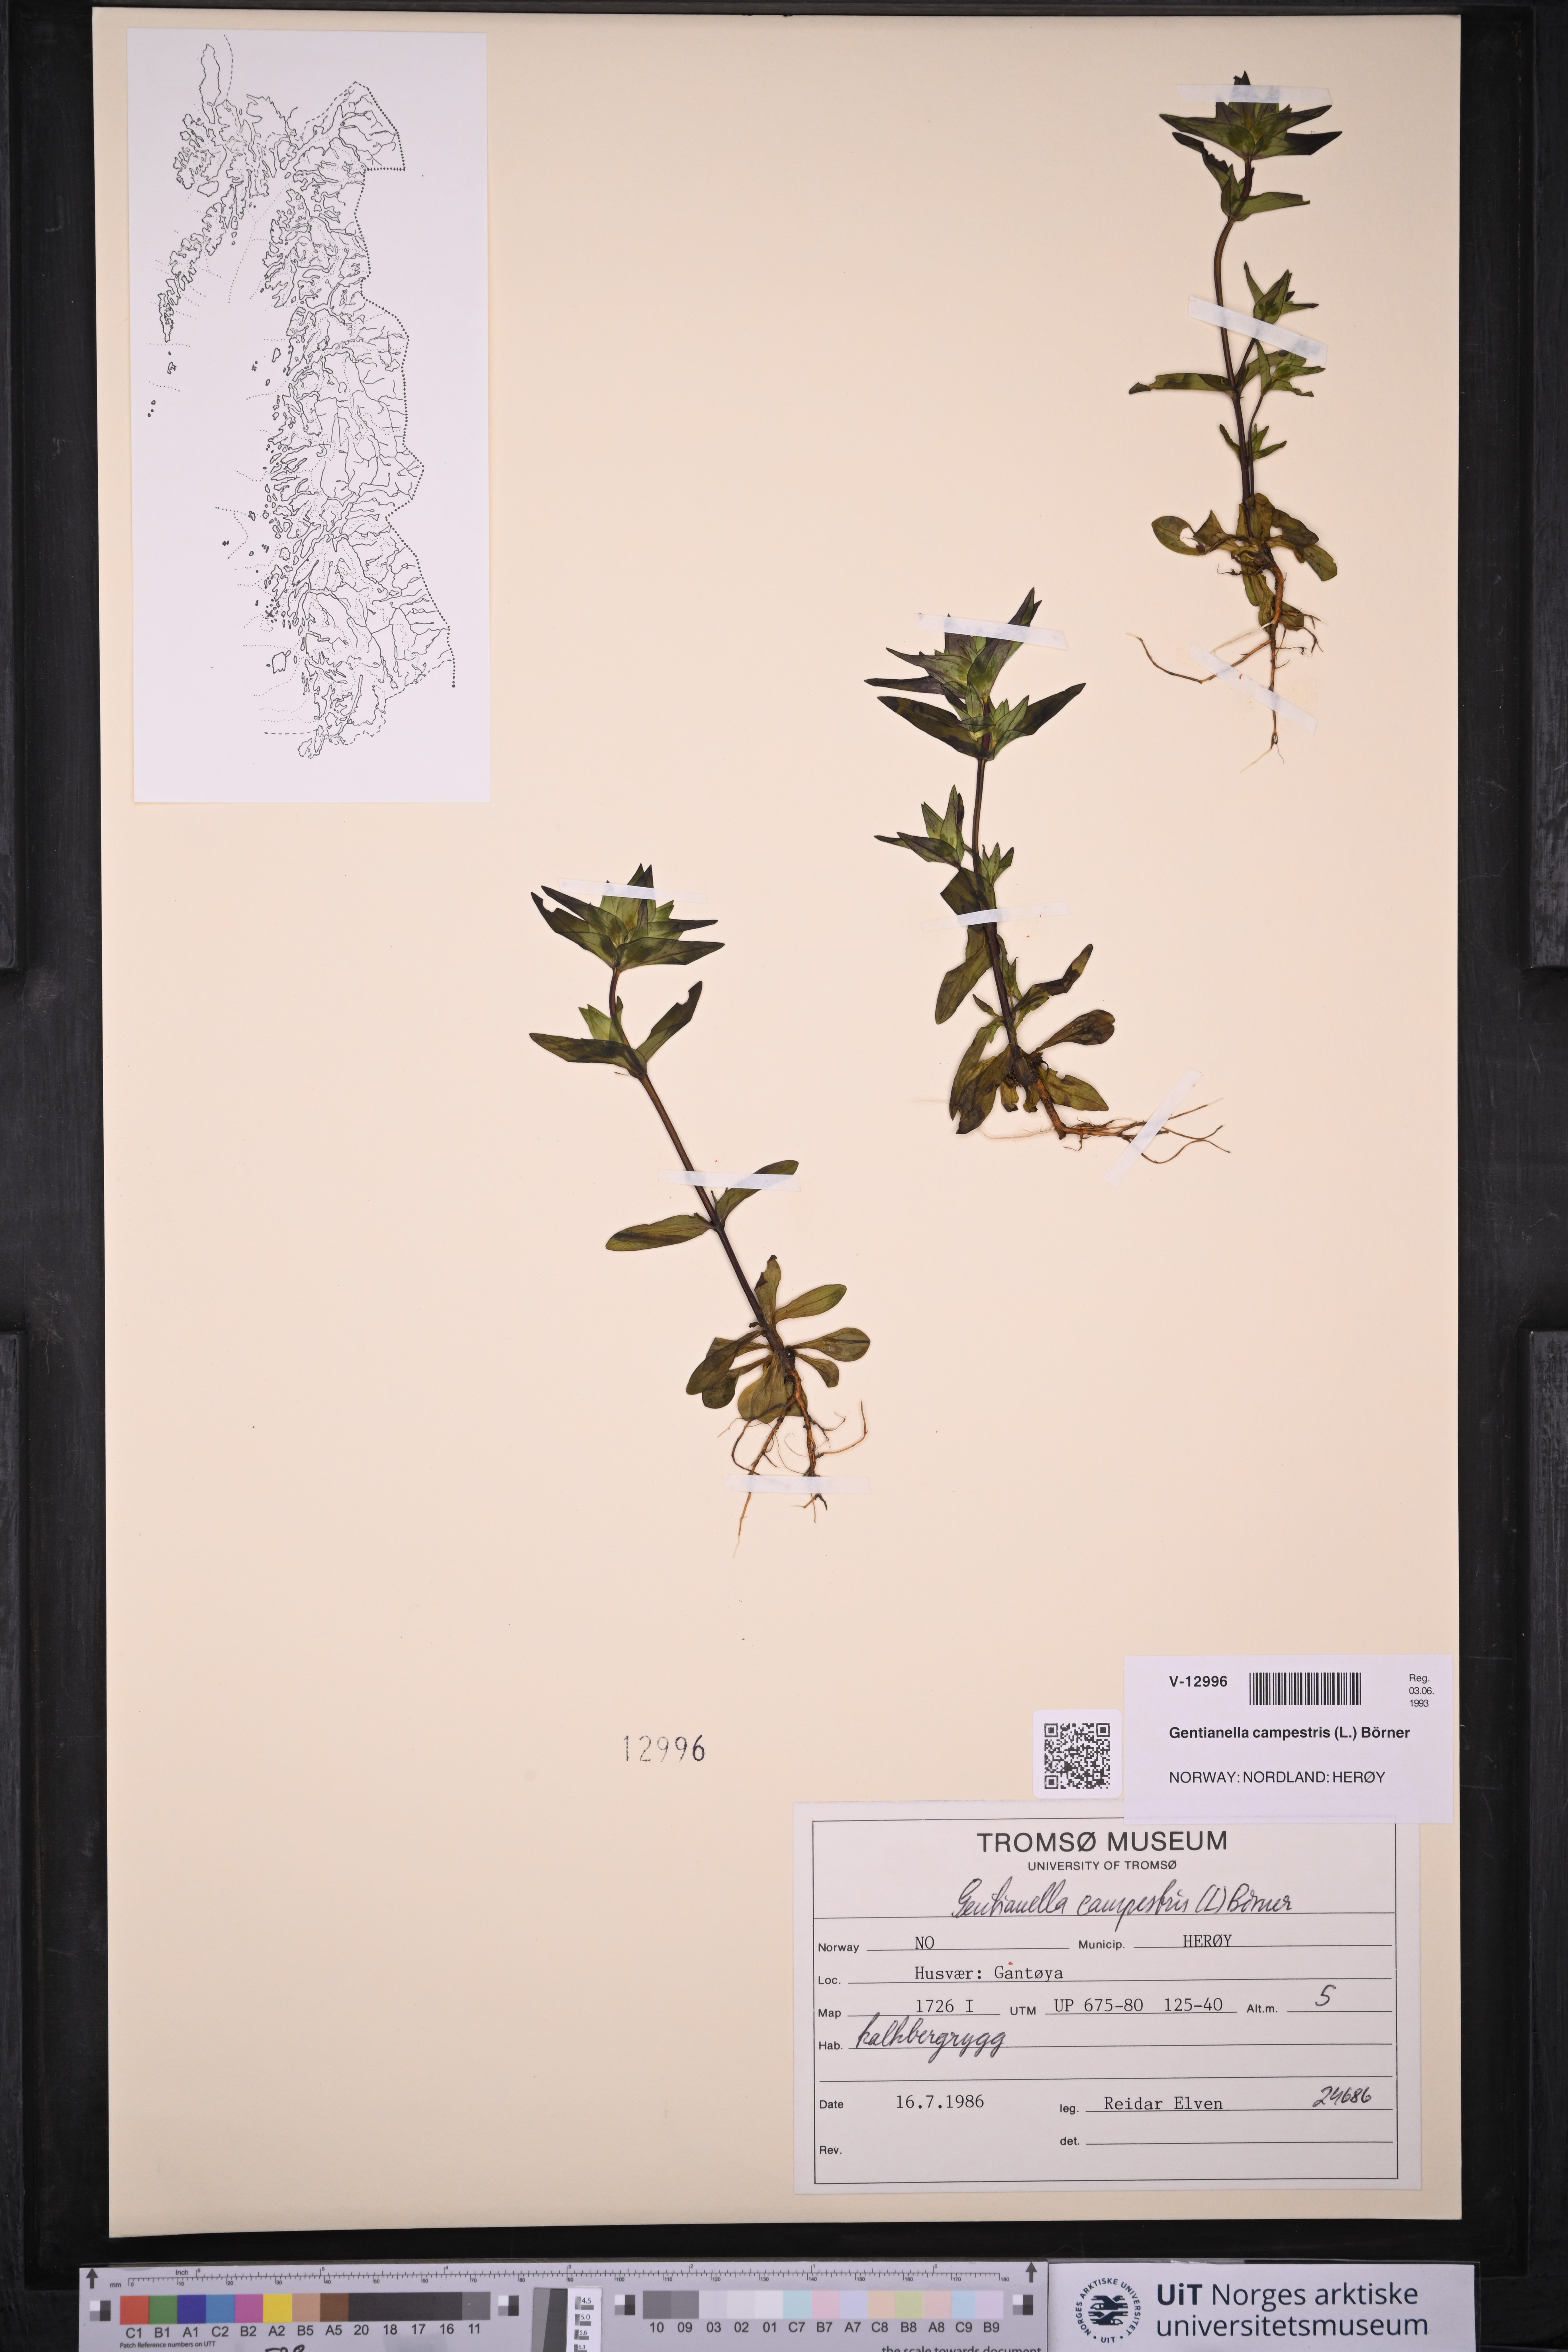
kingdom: Plantae
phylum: Tracheophyta
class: Magnoliopsida
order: Gentianales
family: Gentianaceae
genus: Gentianella
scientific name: Gentianella campestris
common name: Field gentian
